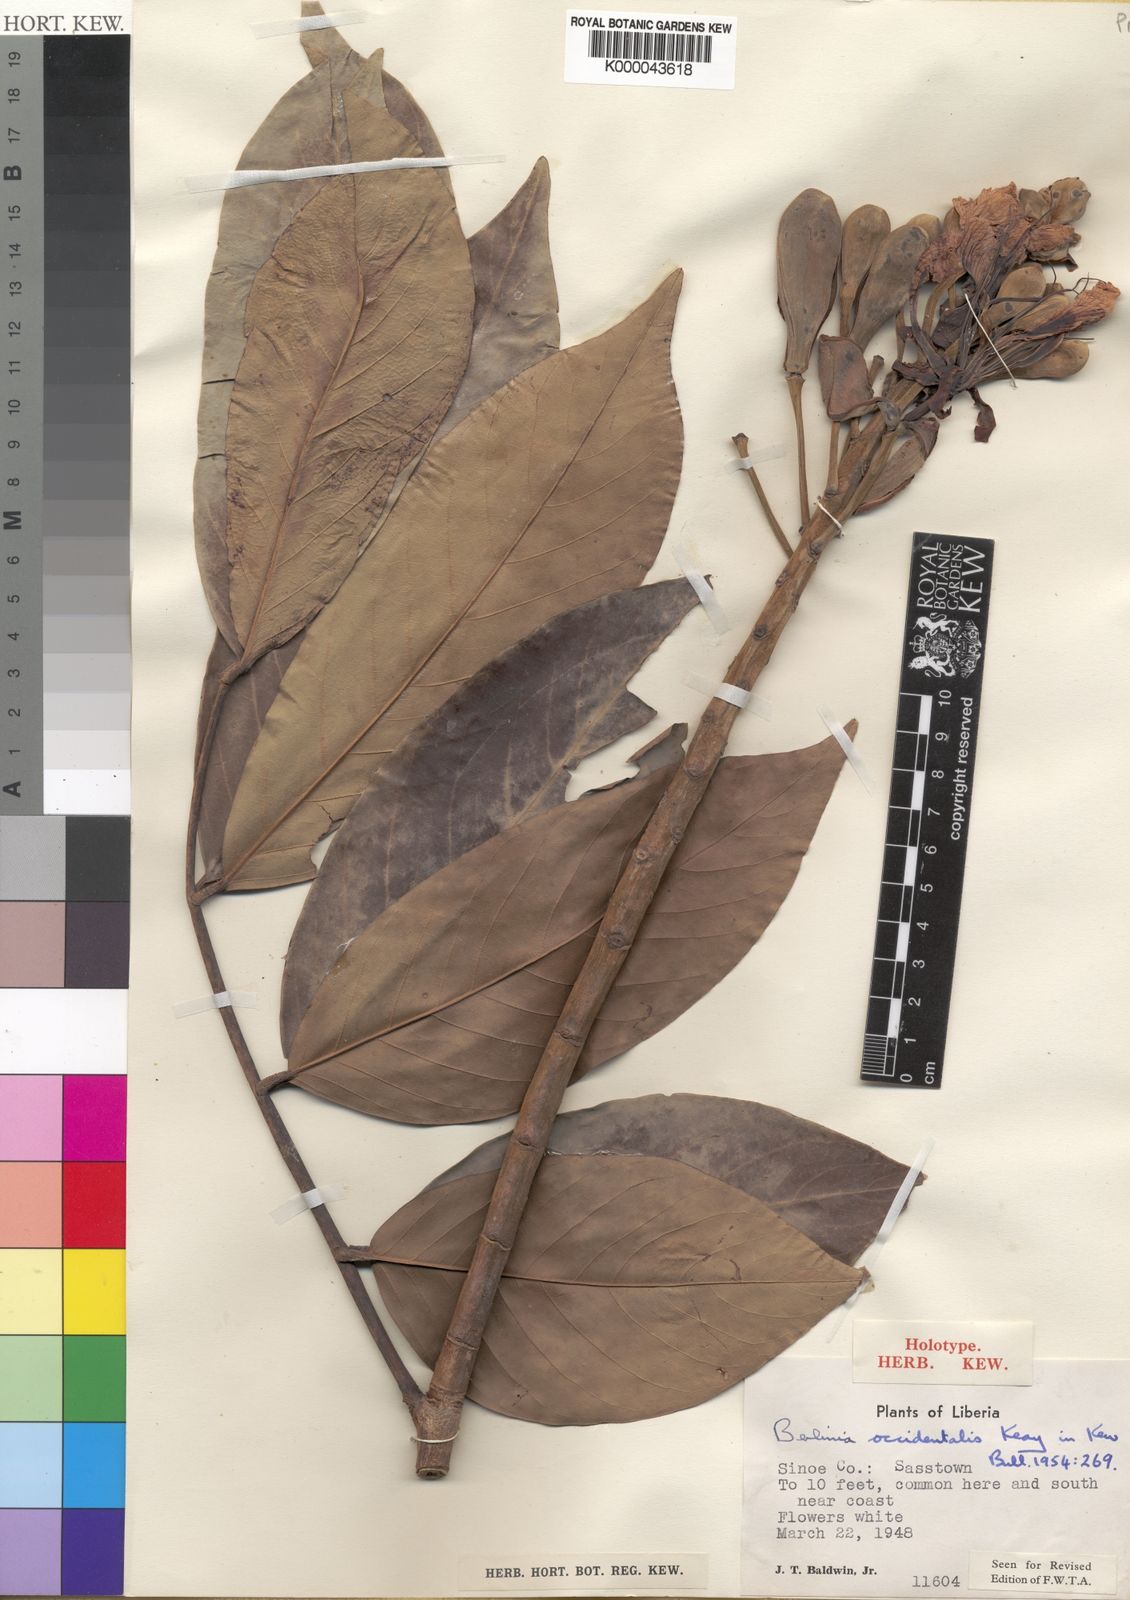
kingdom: Plantae
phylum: Tracheophyta
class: Magnoliopsida
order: Fabales
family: Fabaceae
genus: Berlinia
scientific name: Berlinia occidentalis
